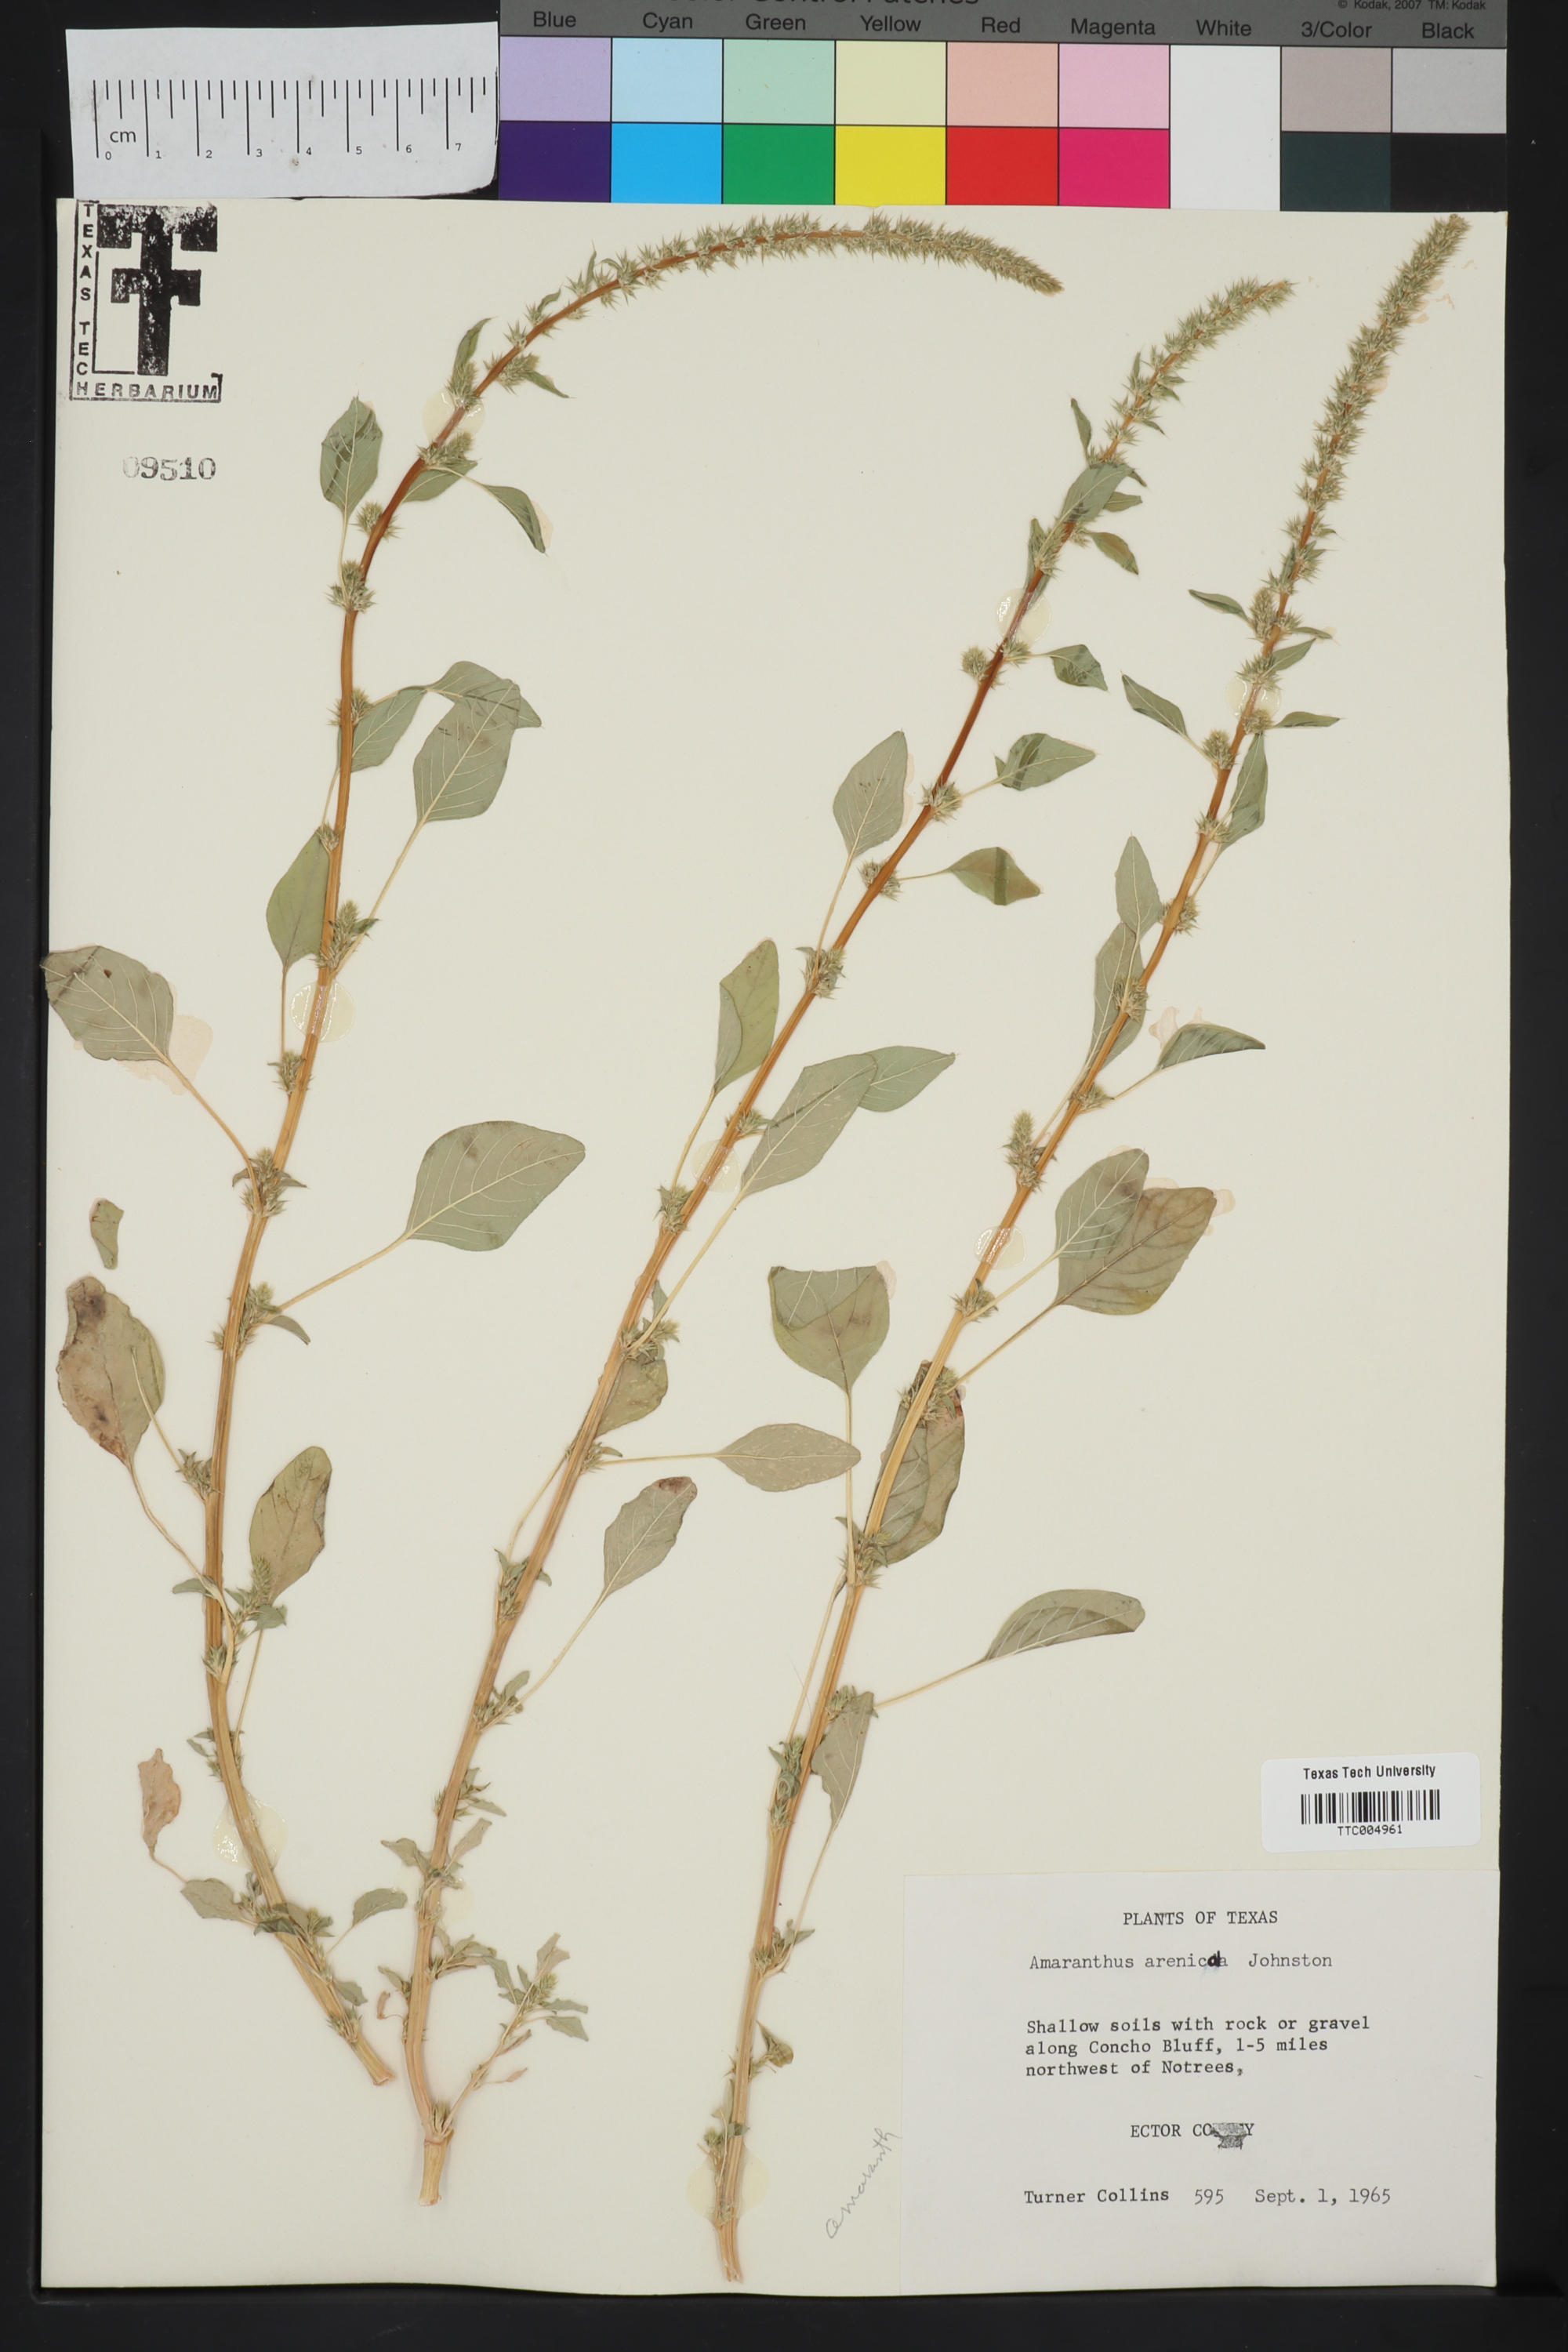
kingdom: Plantae
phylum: Tracheophyta
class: Magnoliopsida
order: Caryophyllales
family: Amaranthaceae
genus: Amaranthus
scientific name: Amaranthus arenicola
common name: Sandhills amaranth
